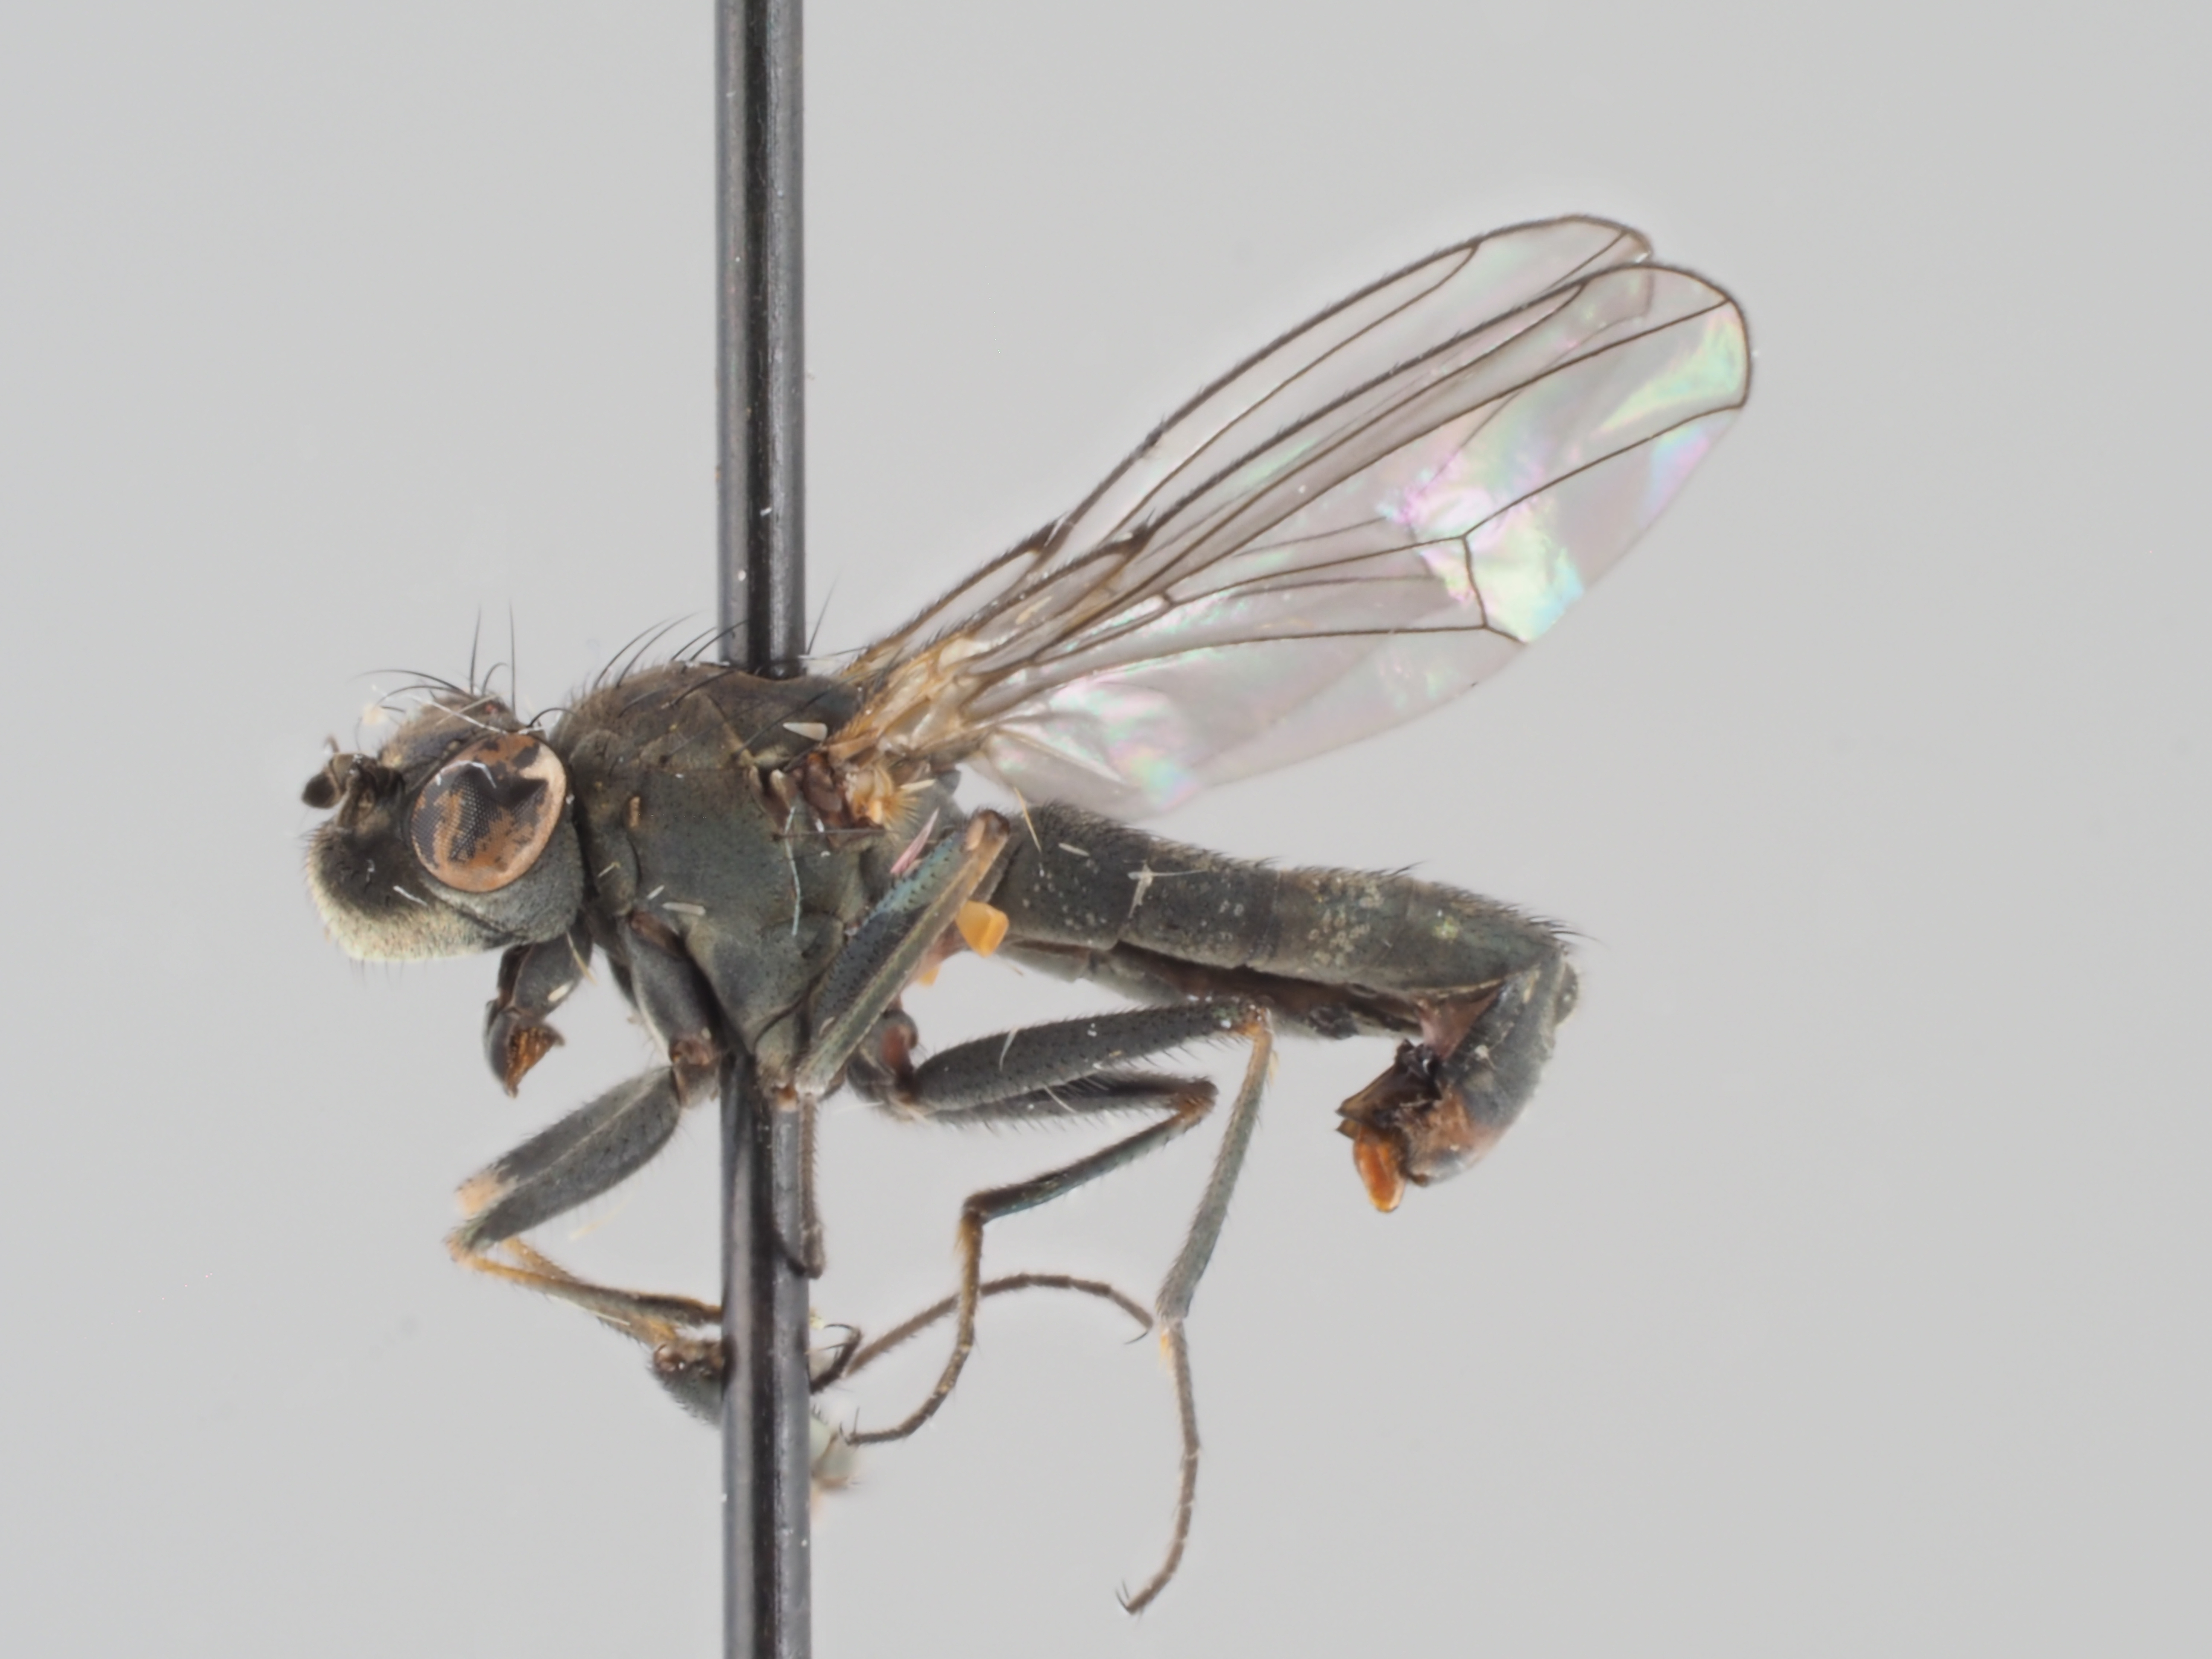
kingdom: Animalia
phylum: Arthropoda
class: Insecta
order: Diptera
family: Ephydridae
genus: Setacera
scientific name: Setacera aurata
